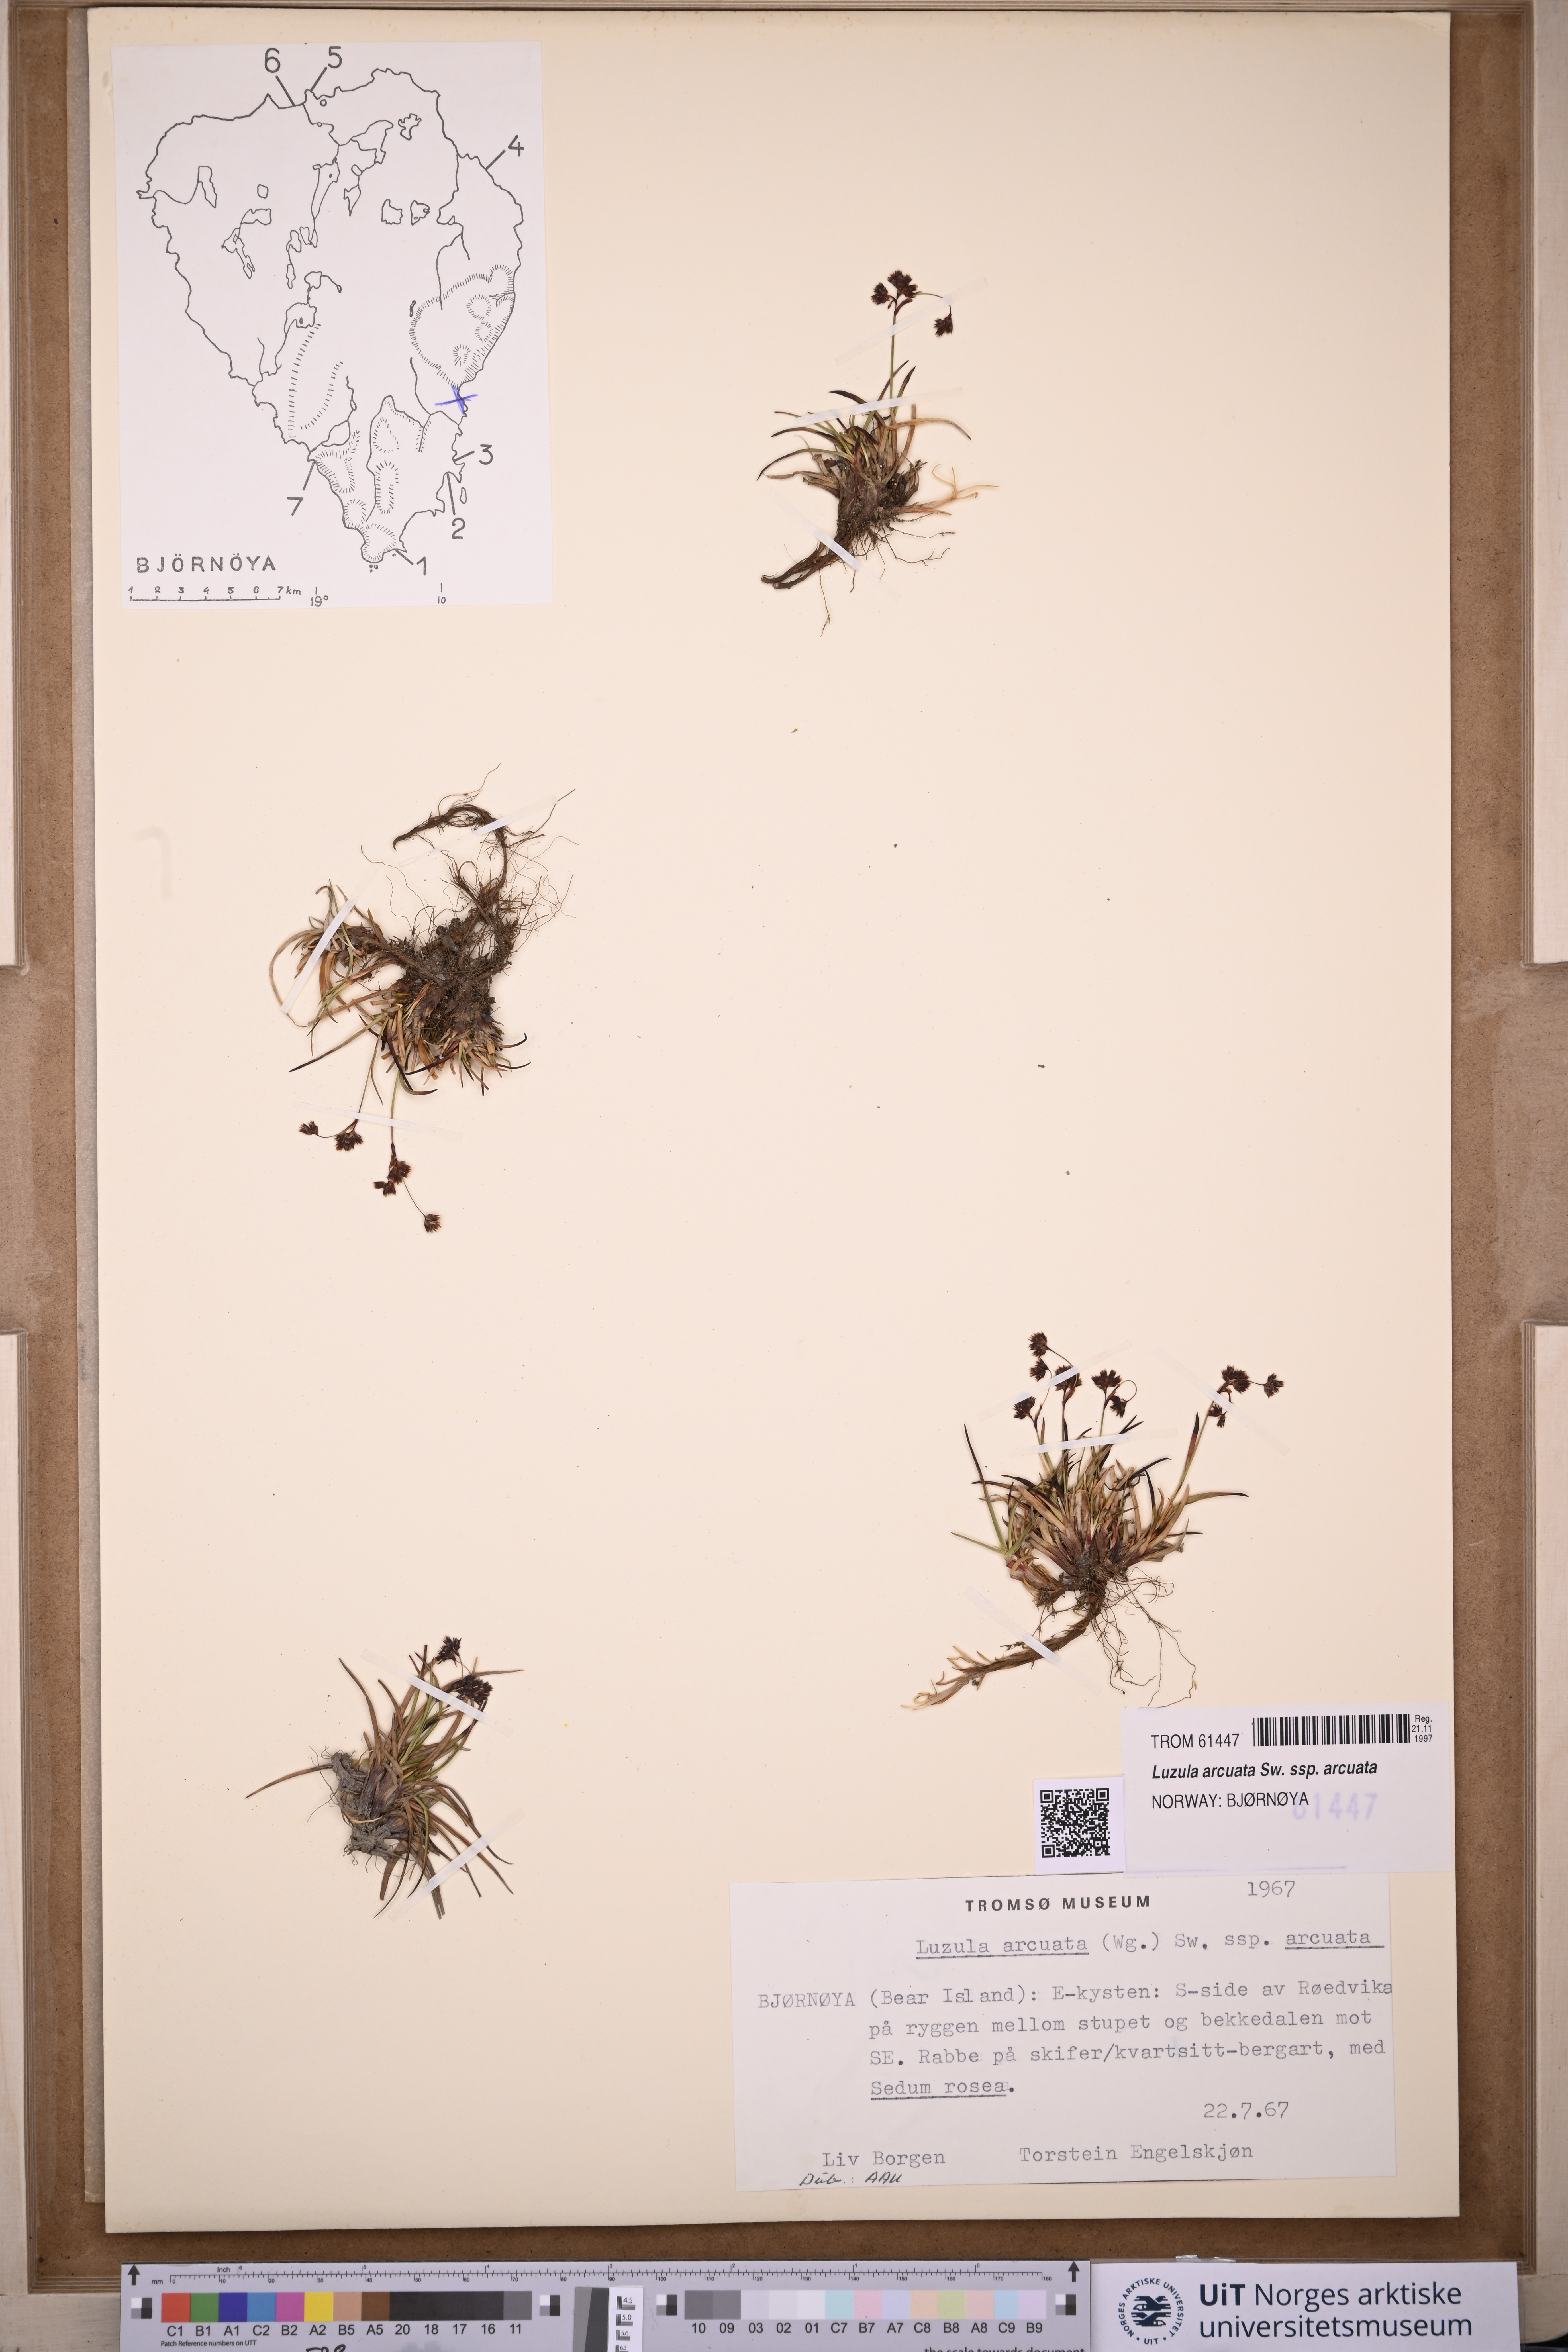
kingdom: Plantae
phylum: Tracheophyta
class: Liliopsida
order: Poales
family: Juncaceae
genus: Luzula
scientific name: Luzula arcuata
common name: Curved wood-rush
